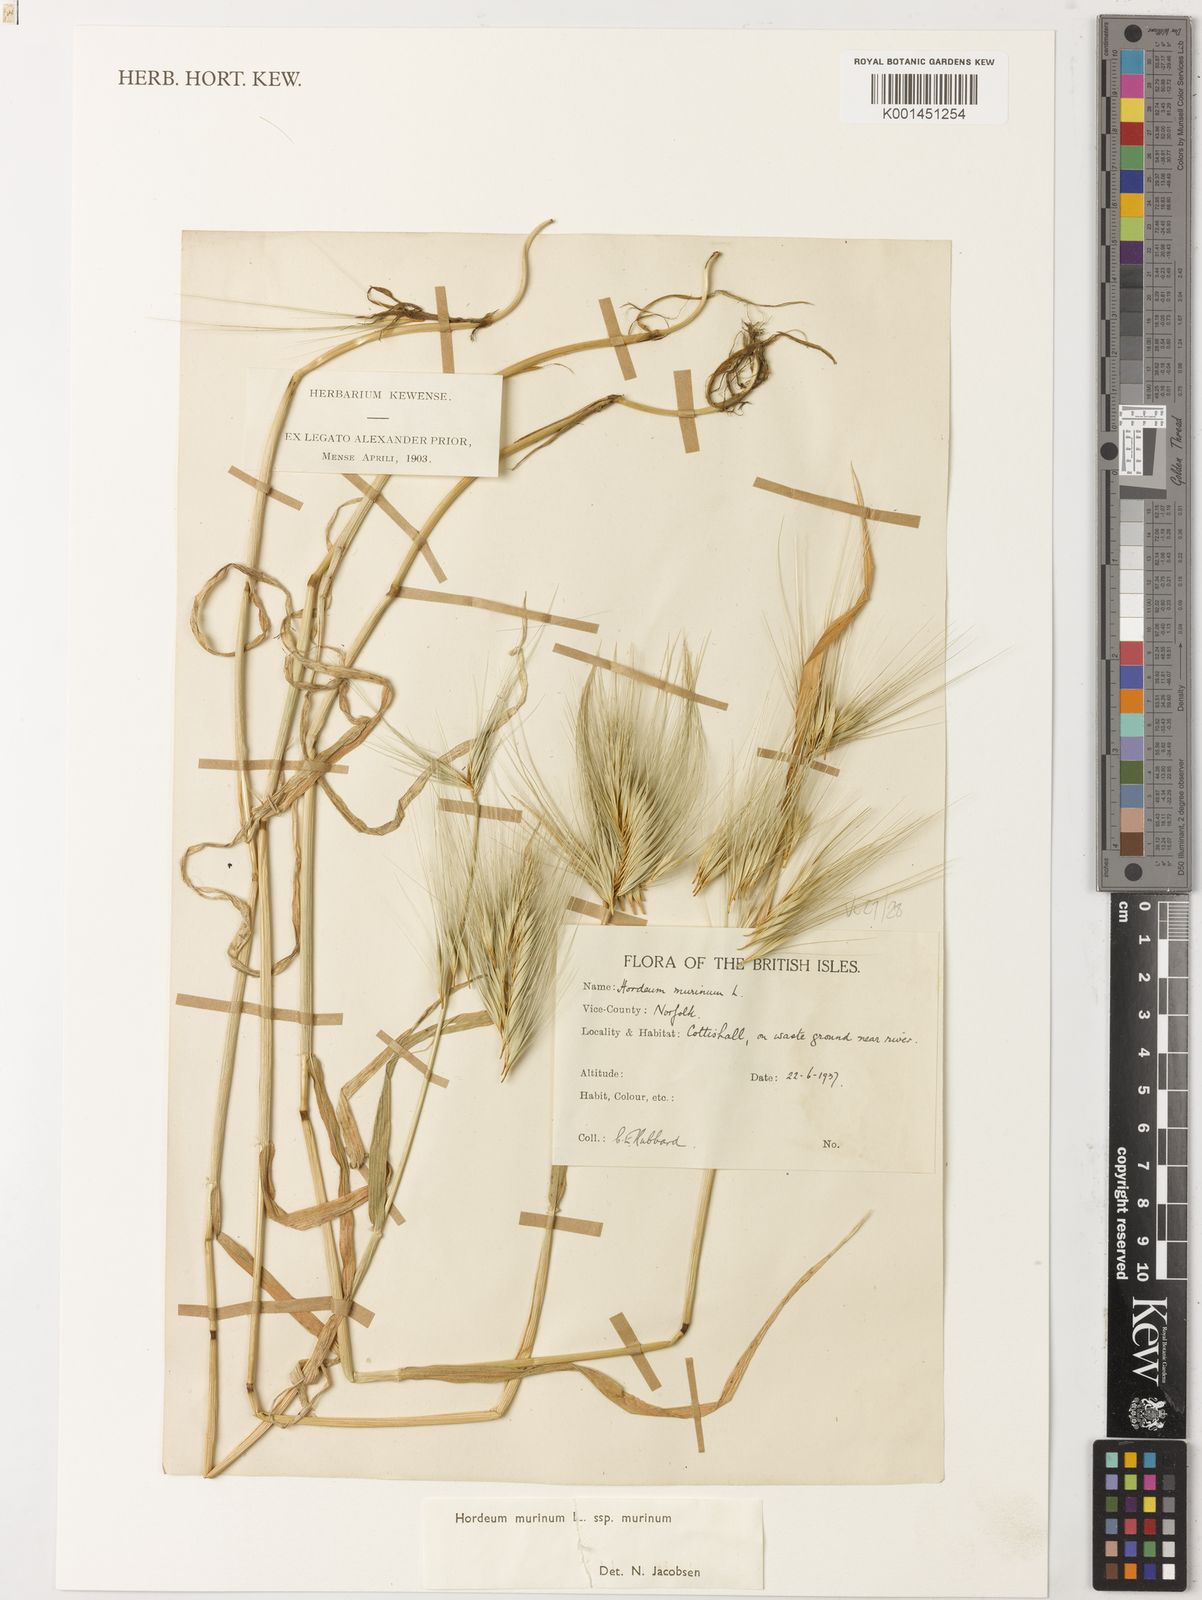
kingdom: Plantae
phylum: Tracheophyta
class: Liliopsida
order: Poales
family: Poaceae
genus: Hordeum
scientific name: Hordeum murinum
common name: Wall barley
